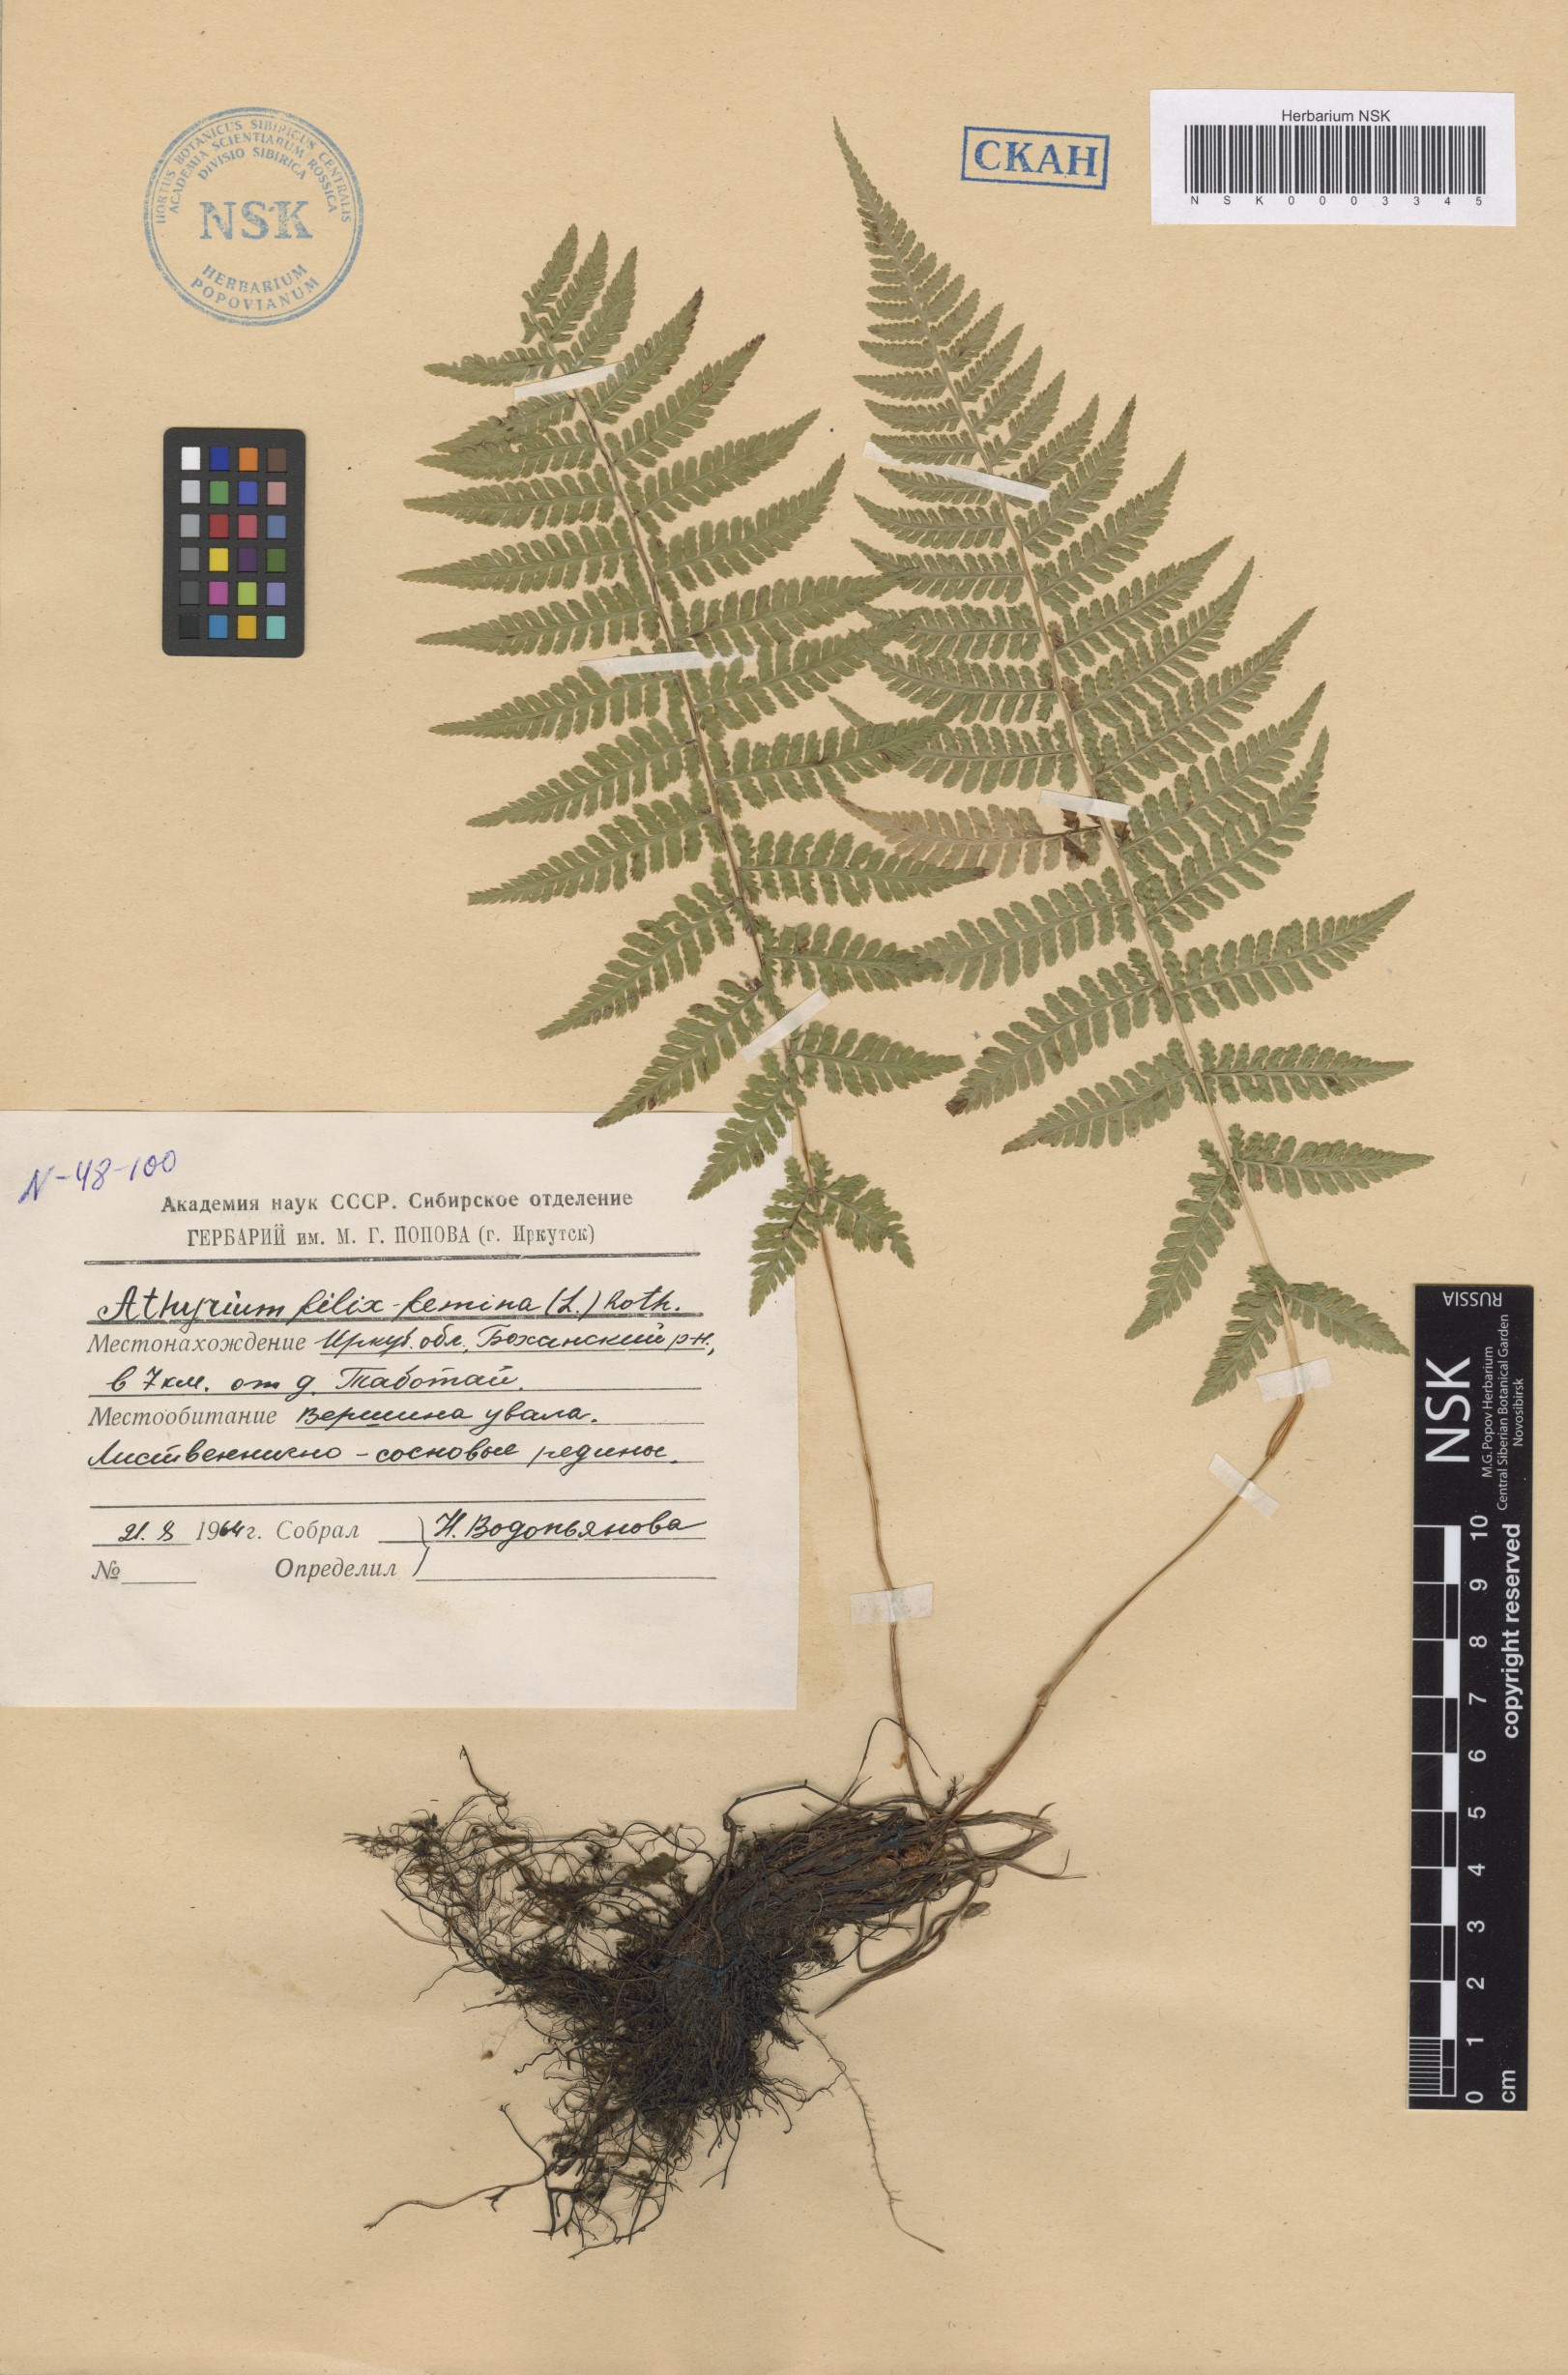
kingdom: Plantae
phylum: Tracheophyta
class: Polypodiopsida
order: Polypodiales
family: Athyriaceae
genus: Athyrium
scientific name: Athyrium filix-femina
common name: Lady fern
